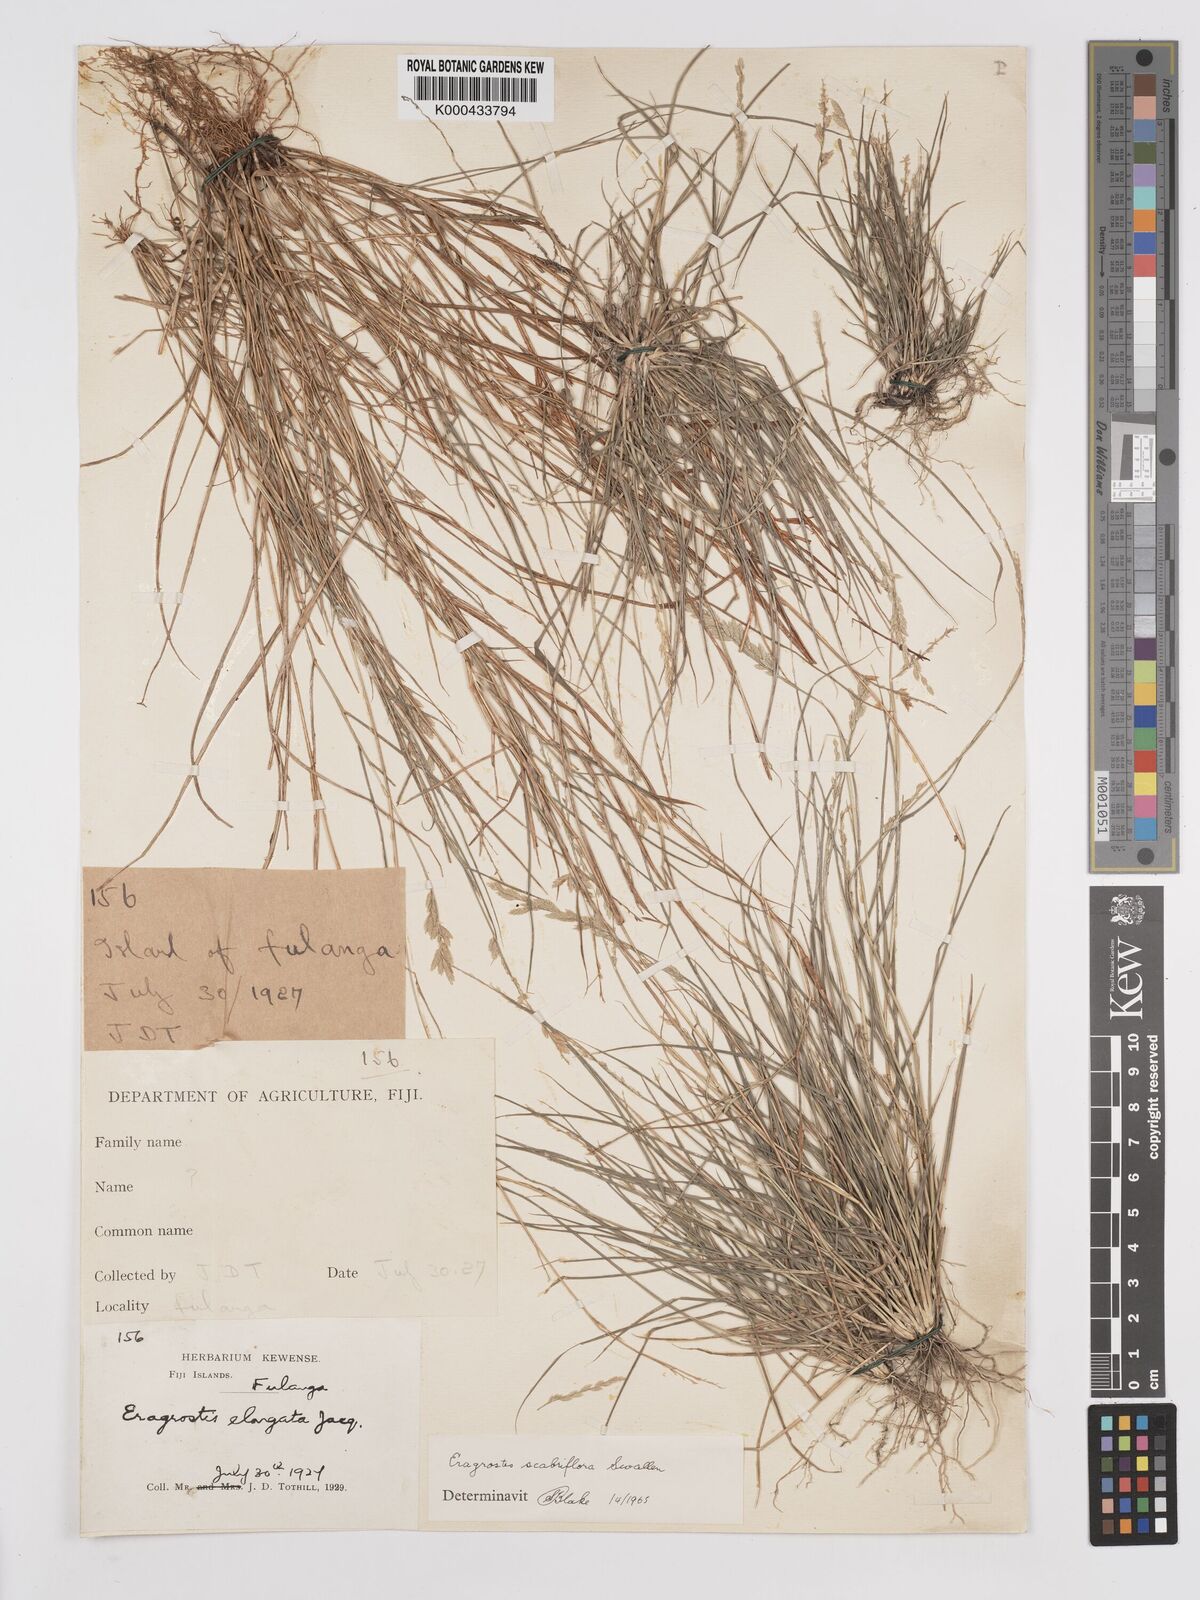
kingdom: Plantae
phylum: Tracheophyta
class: Liliopsida
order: Poales
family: Poaceae
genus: Eragrostis
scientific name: Eragrostis scabriflora
